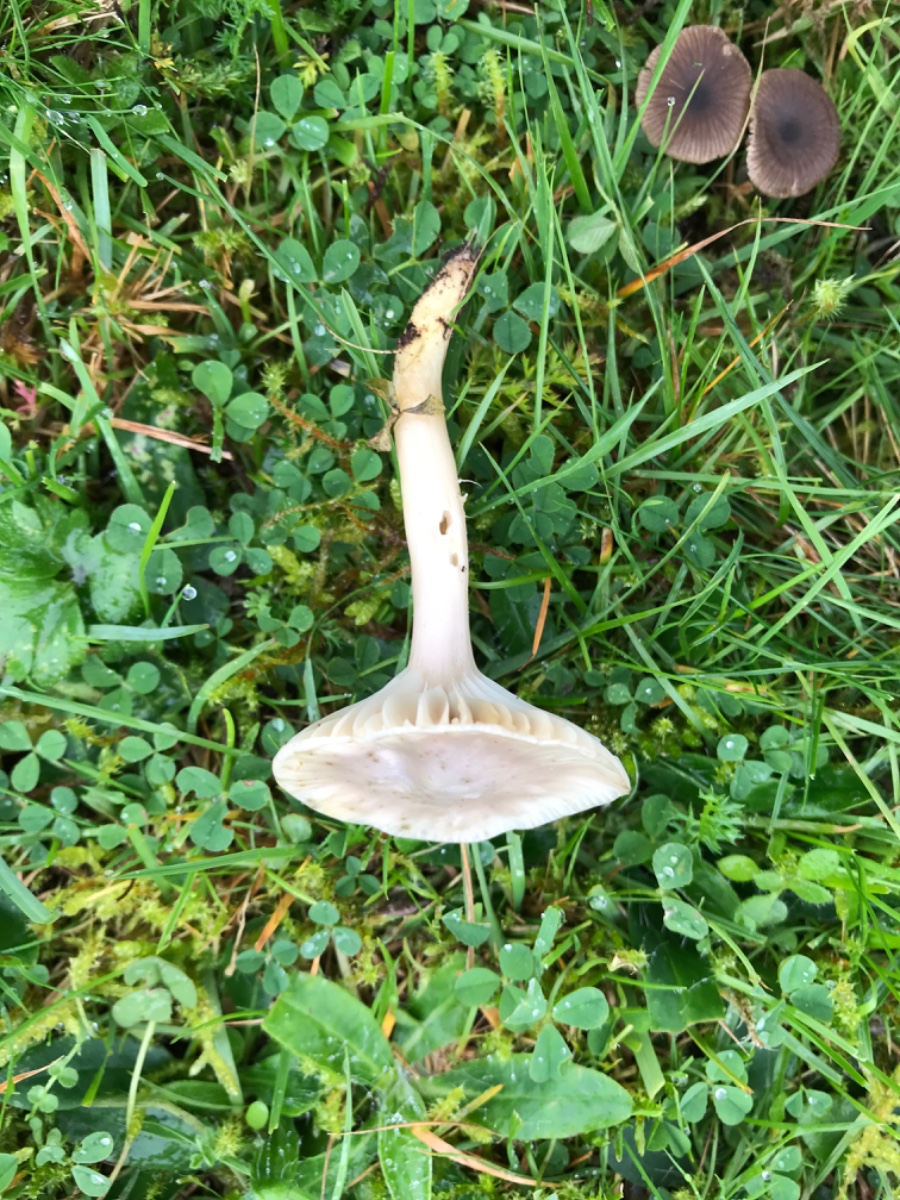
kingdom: Fungi
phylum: Basidiomycota
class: Agaricomycetes
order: Agaricales
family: Hygrophoraceae
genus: Cuphophyllus
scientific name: Cuphophyllus flavipes
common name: gulfodet vokshat
